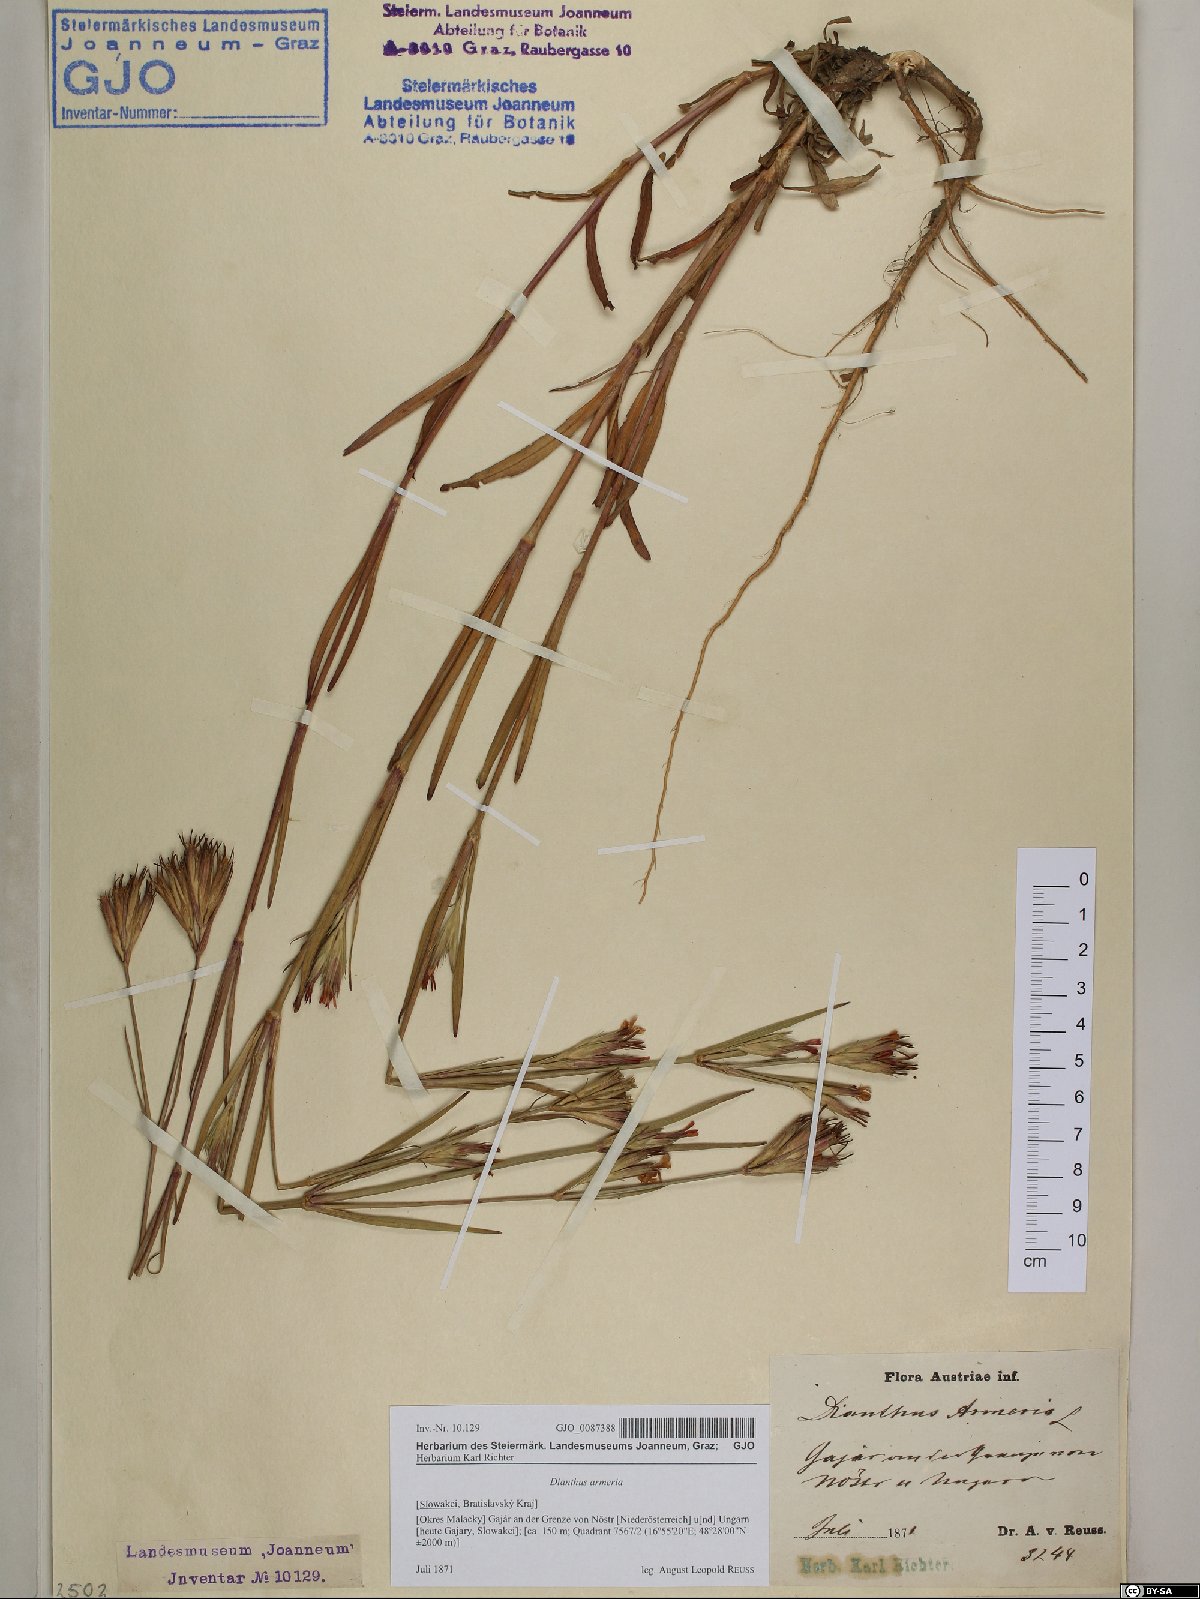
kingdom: Plantae
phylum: Tracheophyta
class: Magnoliopsida
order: Caryophyllales
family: Caryophyllaceae
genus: Dianthus
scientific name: Dianthus armeria
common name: Deptford pink
